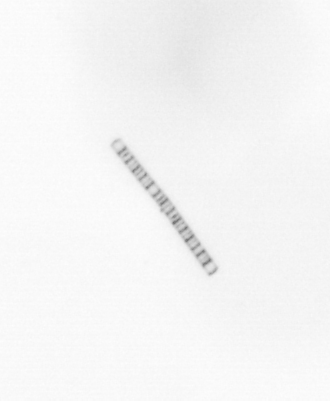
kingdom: Chromista
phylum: Ochrophyta
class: Bacillariophyceae
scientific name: Bacillariophyceae
